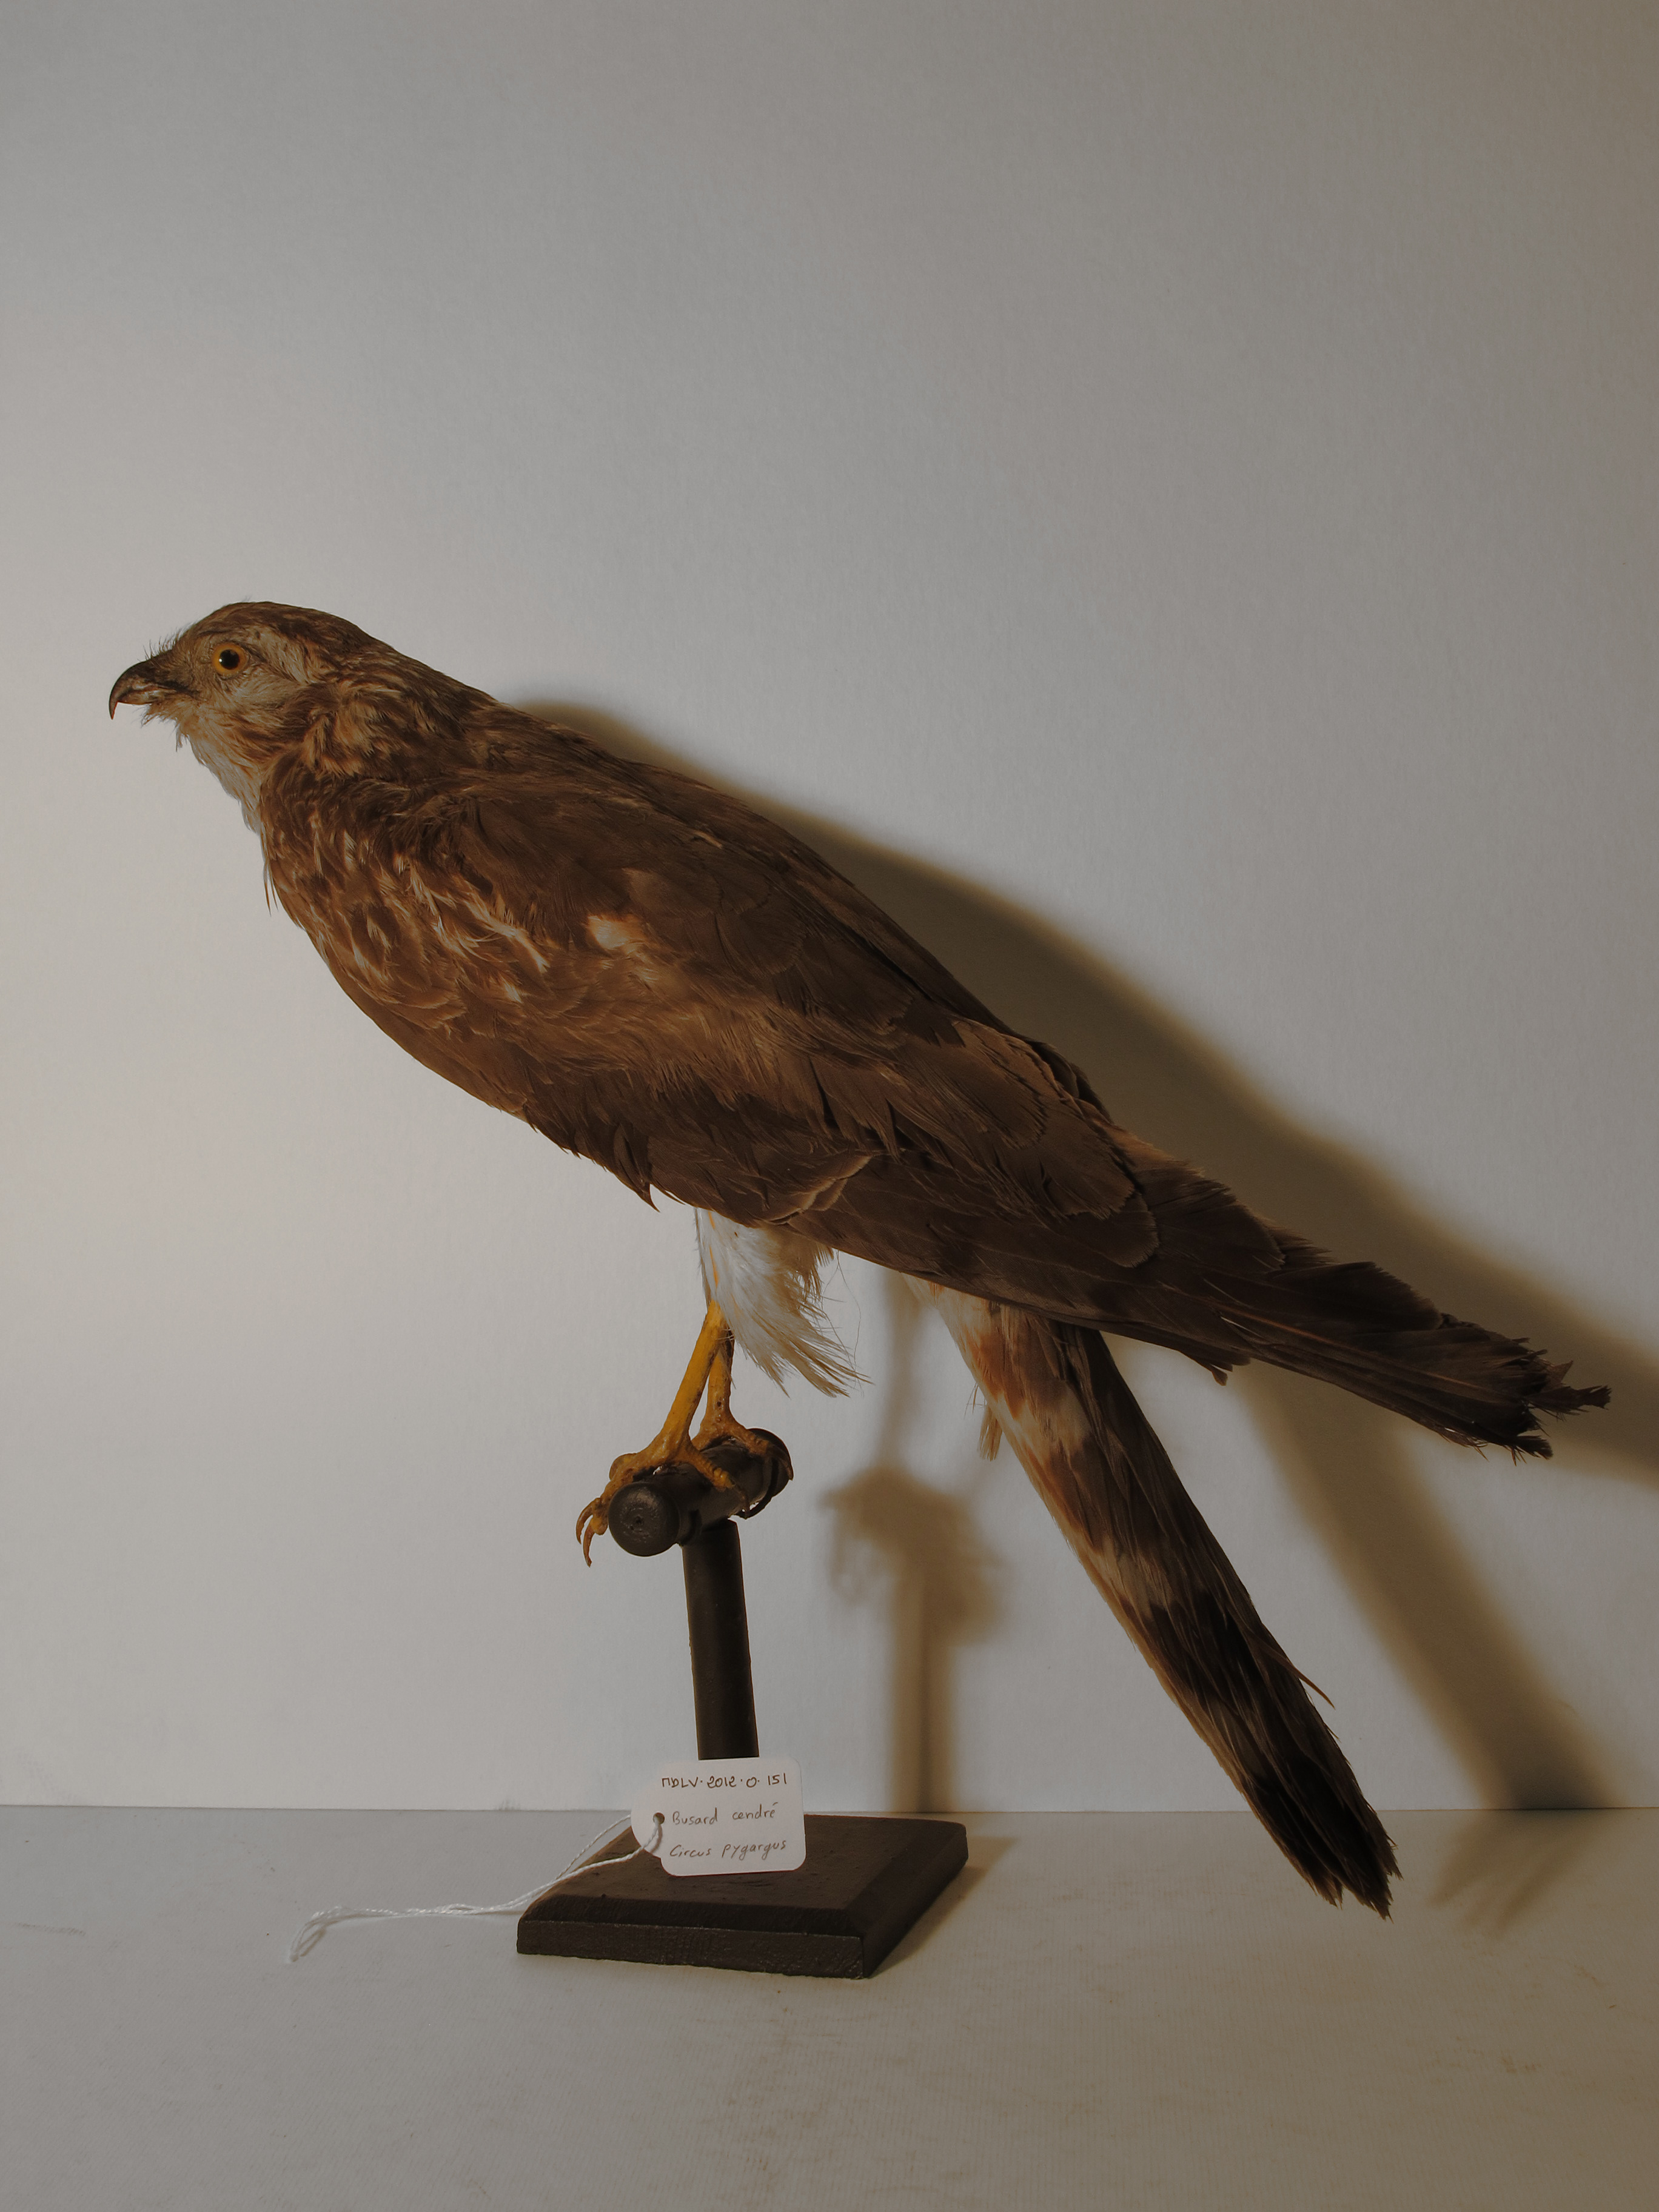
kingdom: Animalia
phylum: Chordata
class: Aves
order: Accipitriformes
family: Accipitridae
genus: Circus
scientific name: Circus pygargus
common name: Montagu's Harrier
